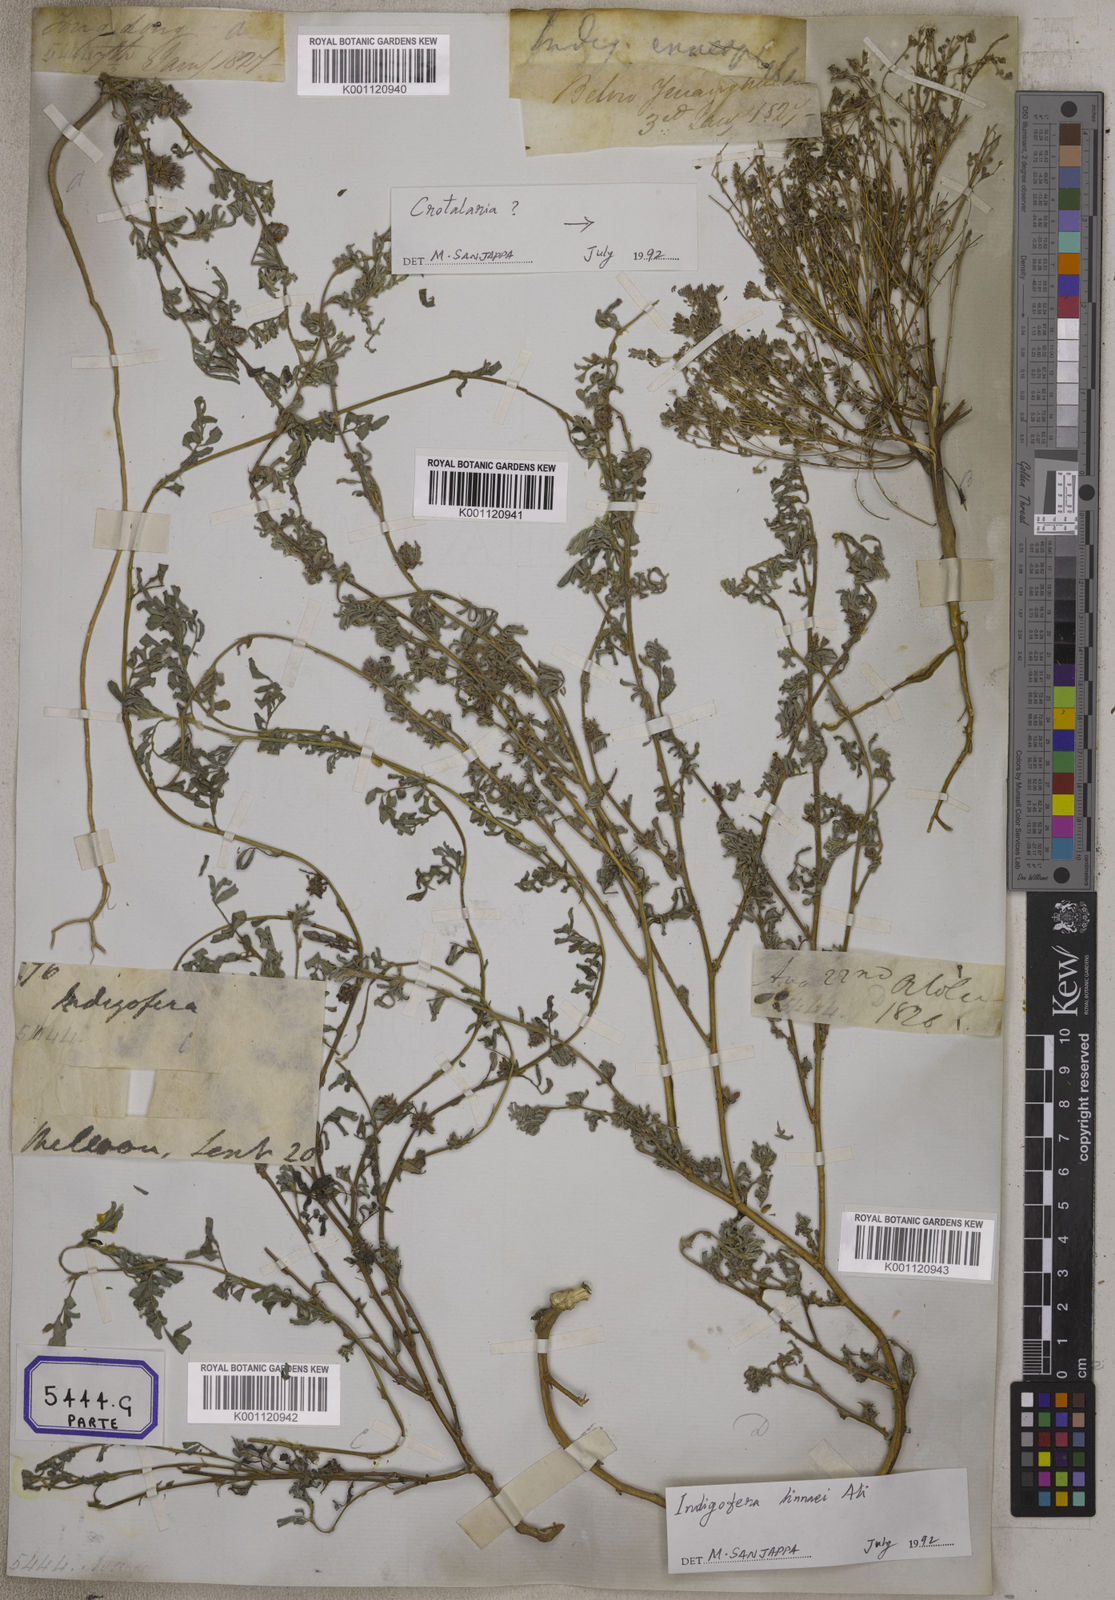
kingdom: Plantae
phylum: Tracheophyta
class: Magnoliopsida
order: Fabales
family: Fabaceae
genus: Indigofera
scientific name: Indigofera linnaei
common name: Nine-leaf indigo
